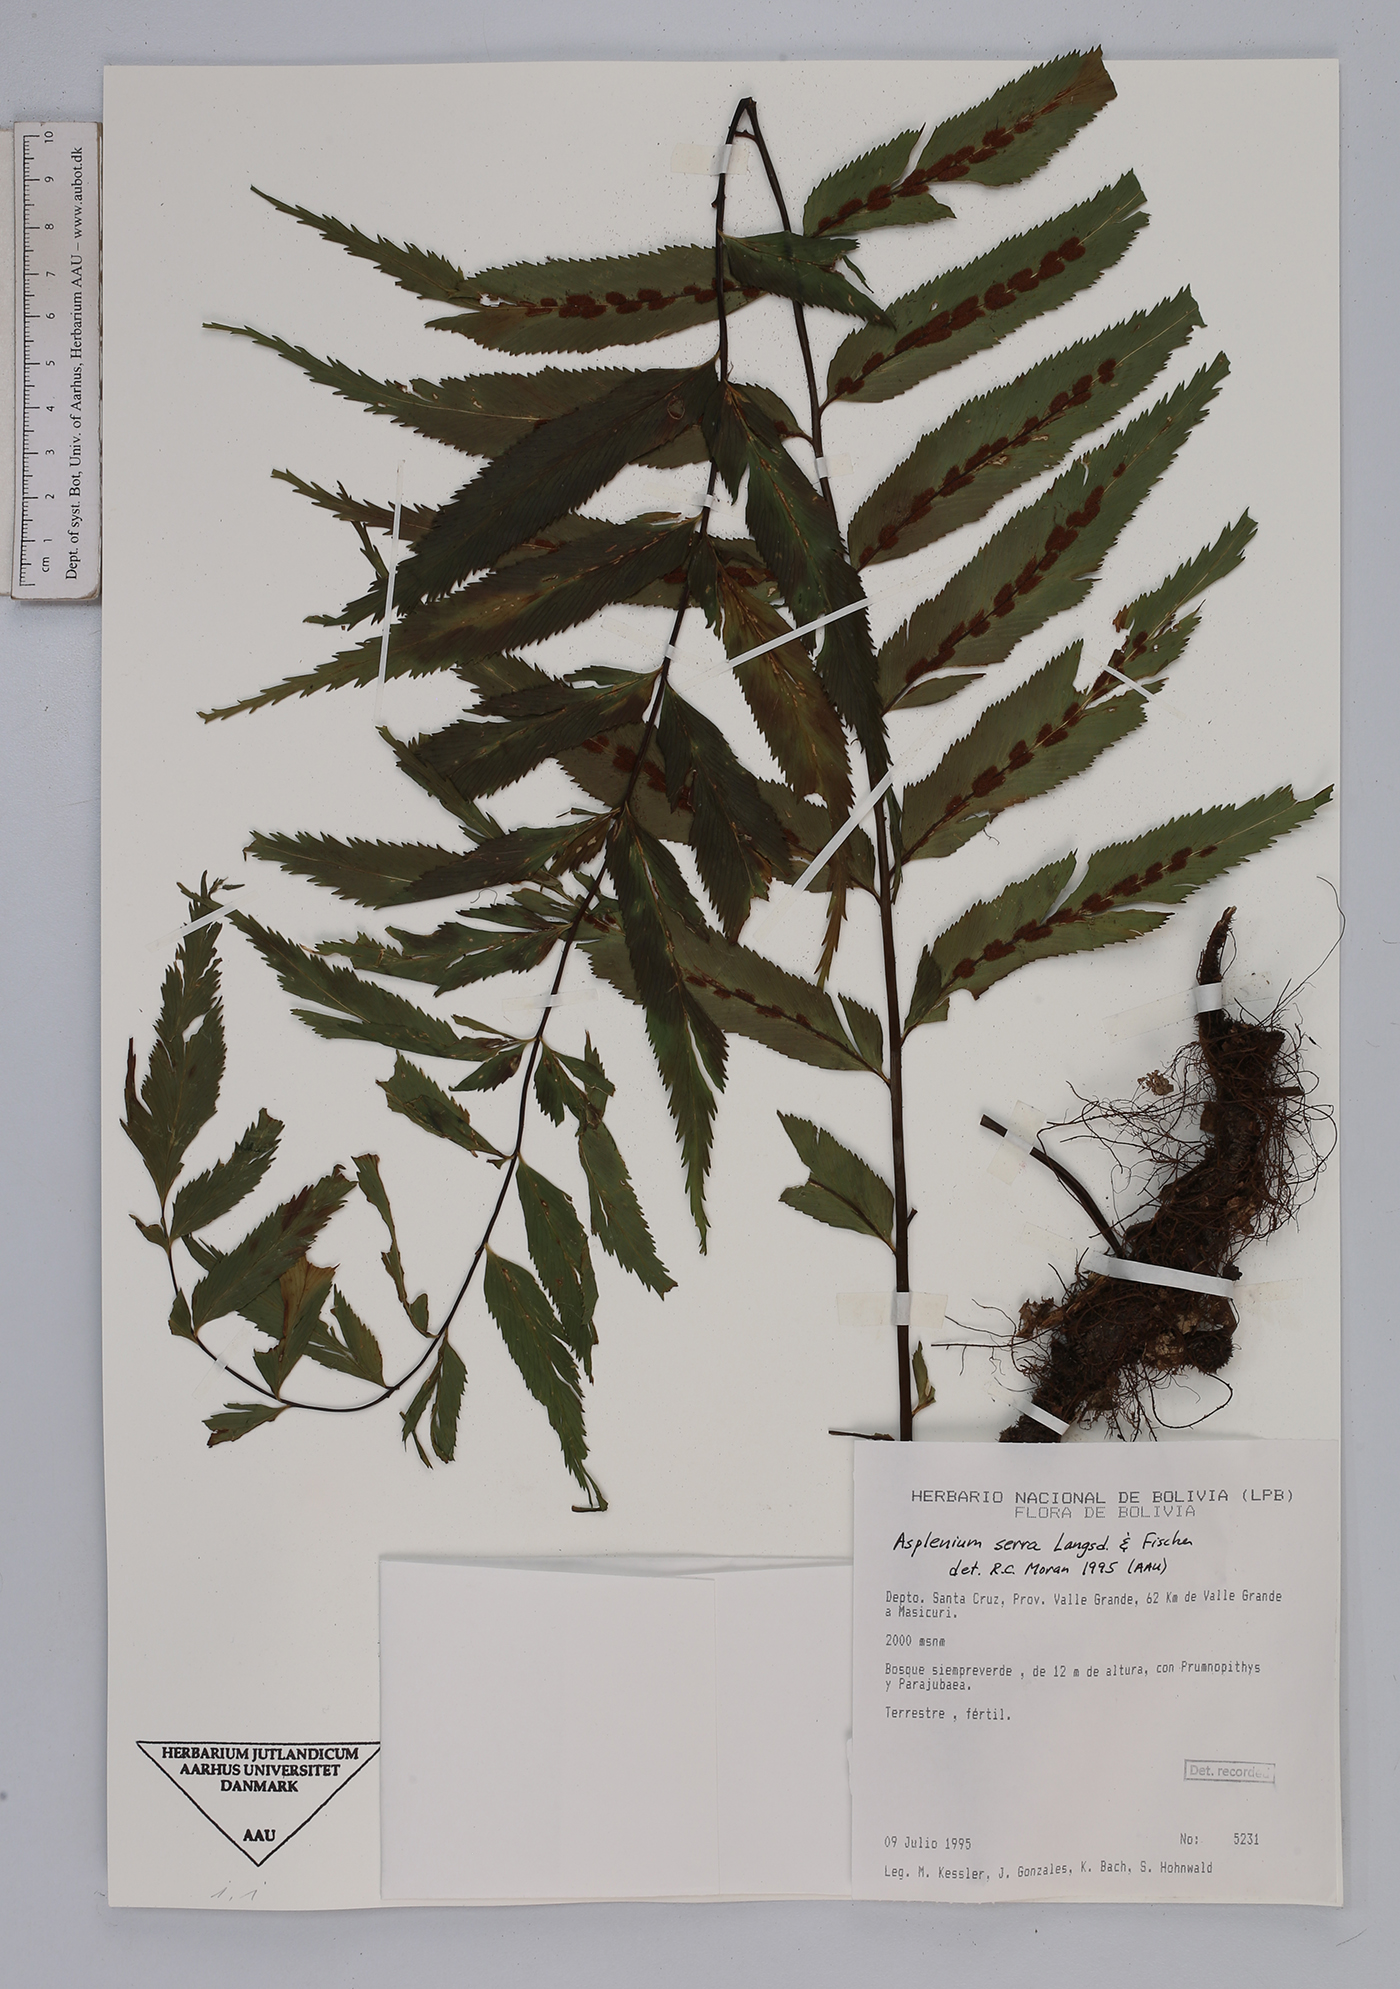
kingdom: Plantae
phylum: Tracheophyta
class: Polypodiopsida
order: Polypodiales
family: Aspleniaceae
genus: Asplenium
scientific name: Asplenium serra
